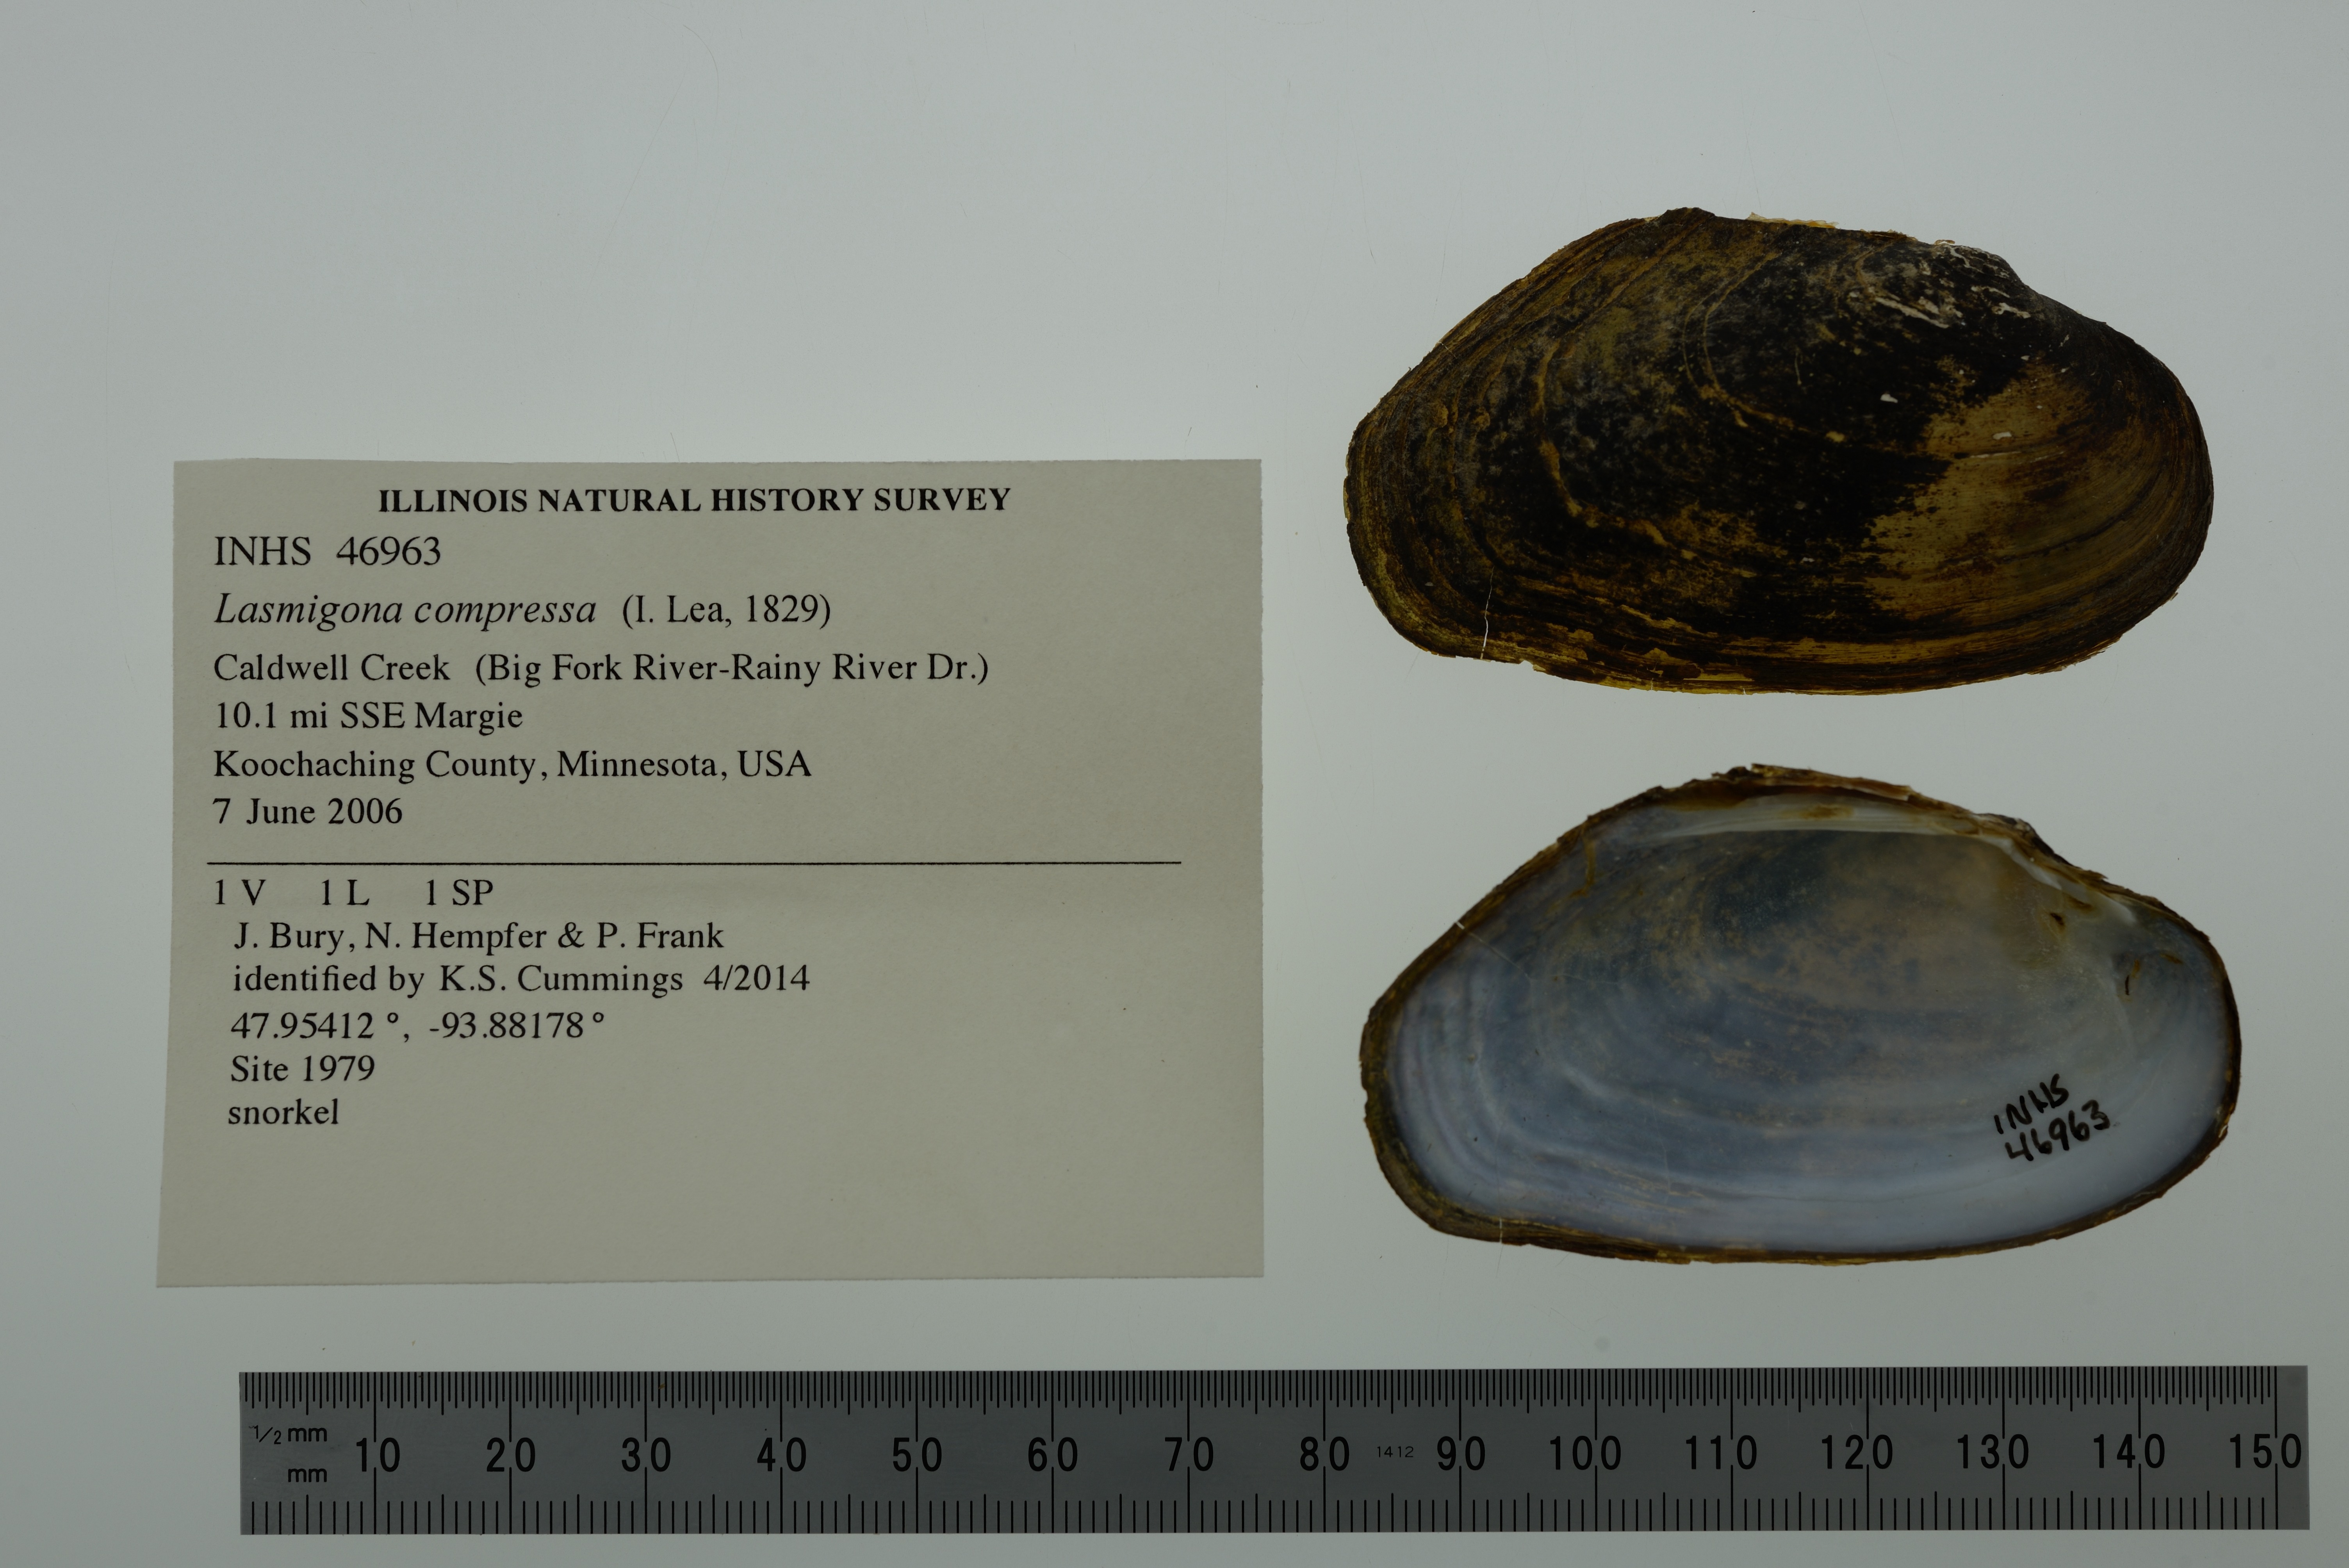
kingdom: Animalia
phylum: Mollusca
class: Bivalvia
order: Unionida
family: Unionidae
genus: Lasmigona
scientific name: Lasmigona compressa
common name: Creek heelsplitter
